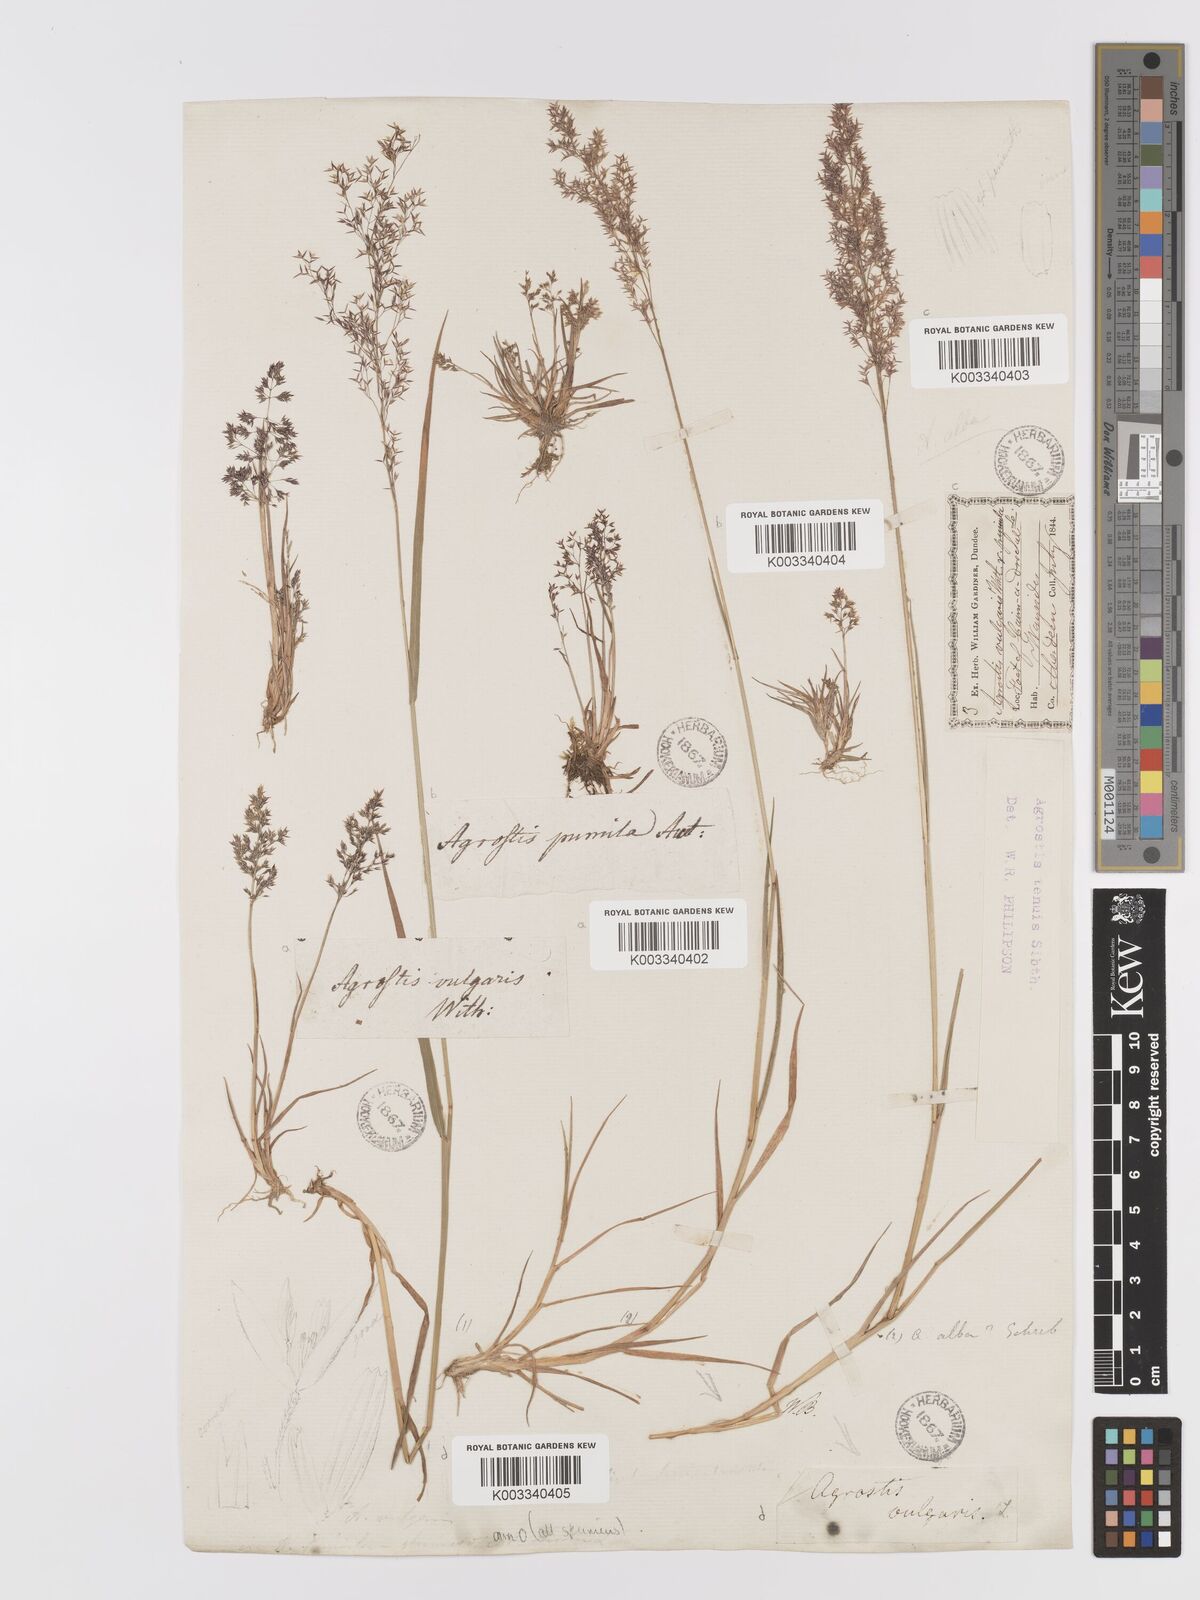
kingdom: Plantae
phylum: Tracheophyta
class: Liliopsida
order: Poales
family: Poaceae
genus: Agrostis
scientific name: Agrostis capillaris
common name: Colonial bentgrass
